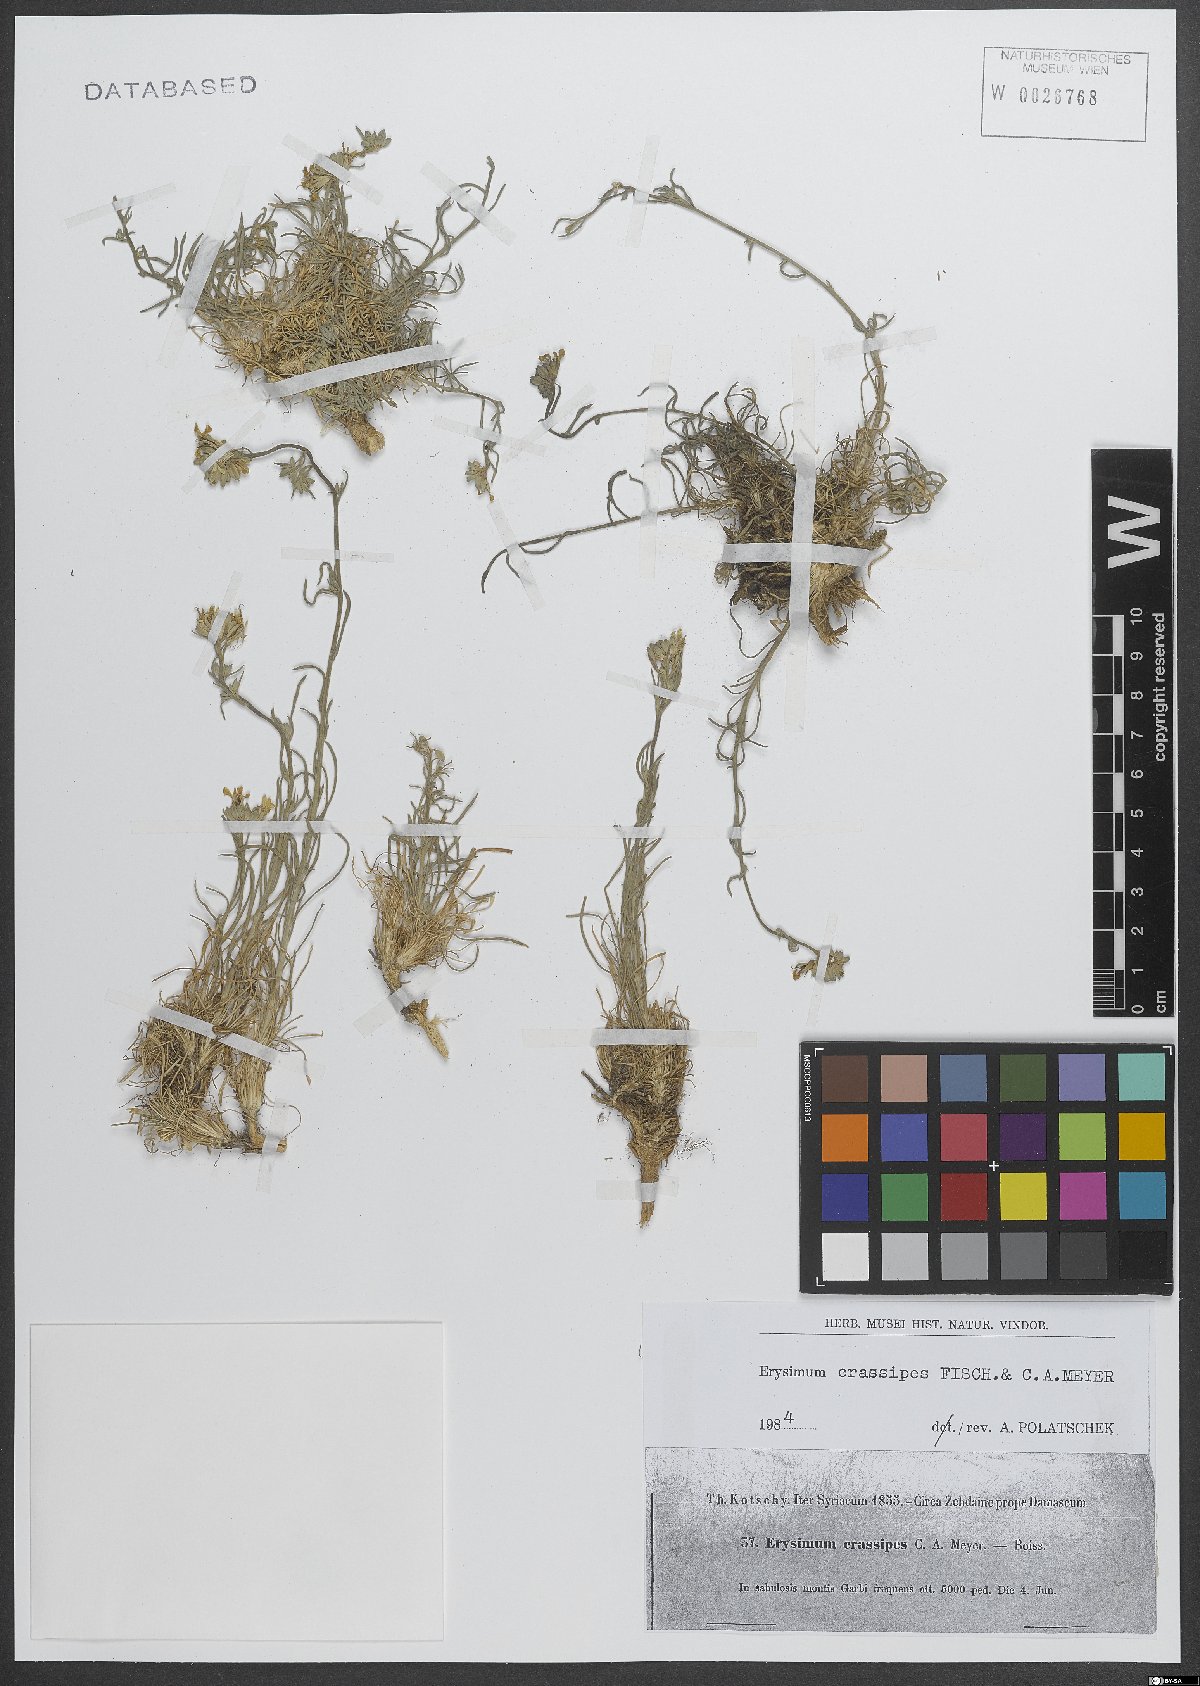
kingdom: Plantae
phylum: Tracheophyta
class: Magnoliopsida
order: Brassicales
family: Brassicaceae
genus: Erysimum
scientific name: Erysimum crassipes
